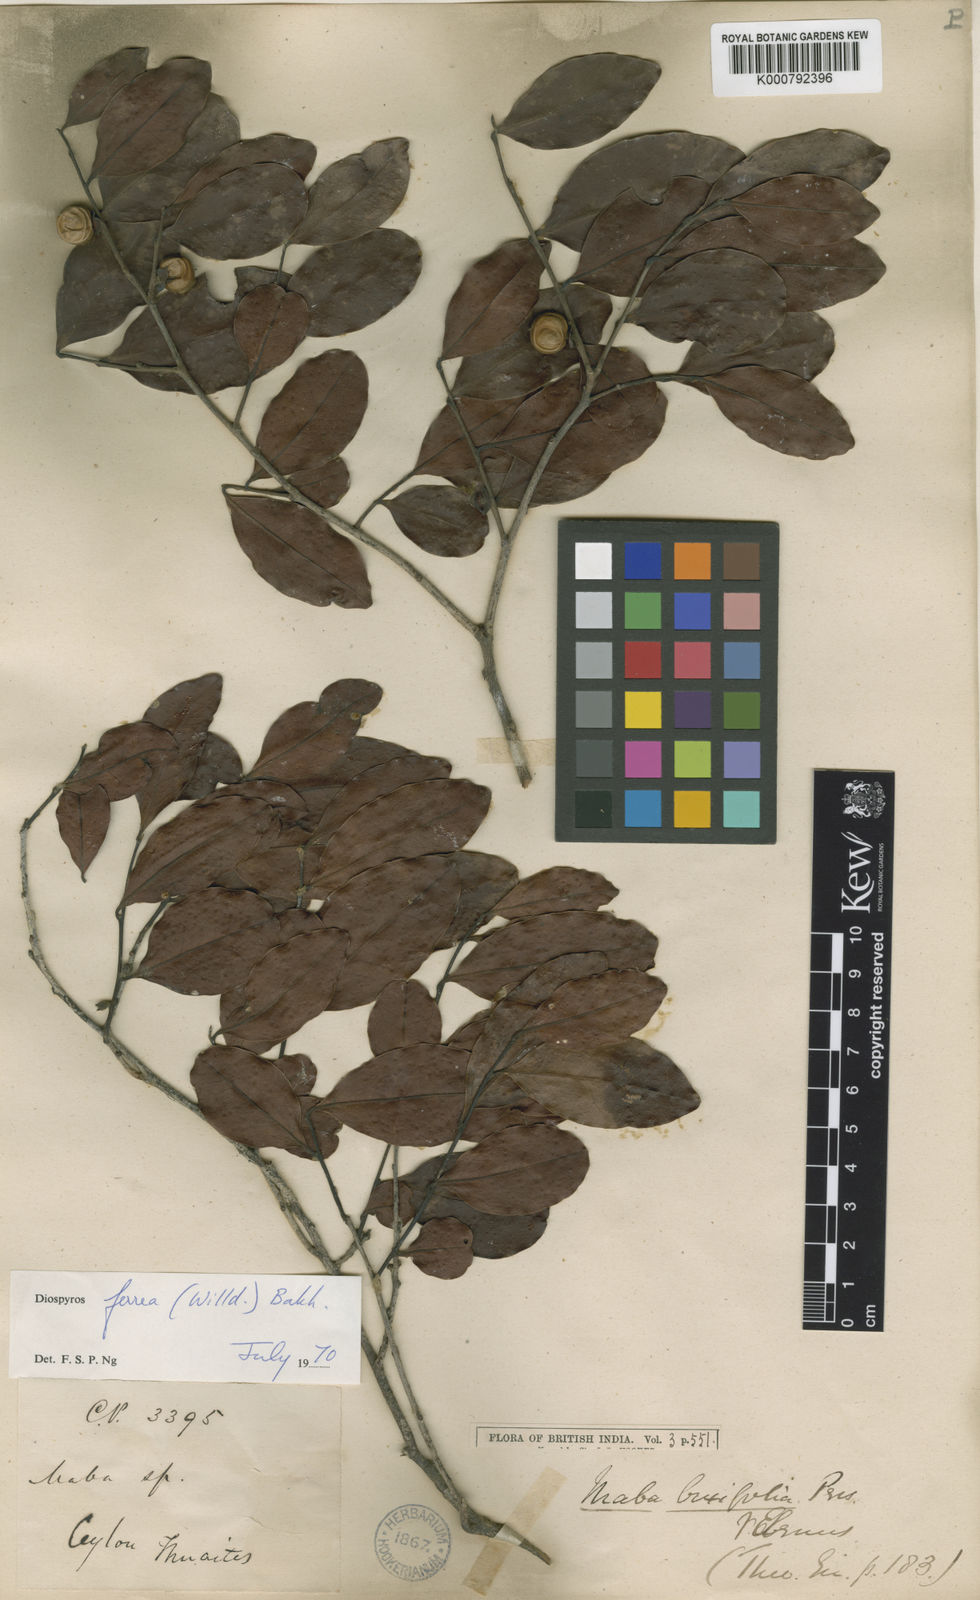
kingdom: Plantae
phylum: Tracheophyta
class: Magnoliopsida
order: Ericales
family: Ebenaceae
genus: Diospyros
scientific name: Diospyros buxifolia
